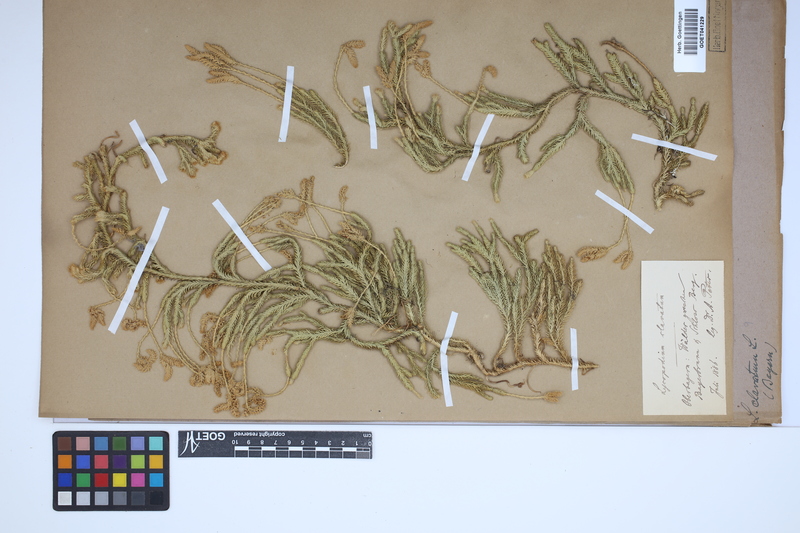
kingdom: Plantae
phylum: Tracheophyta
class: Lycopodiopsida
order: Lycopodiales
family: Lycopodiaceae
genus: Lycopodium
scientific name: Lycopodium clavatum
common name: Stag's-horn clubmoss
